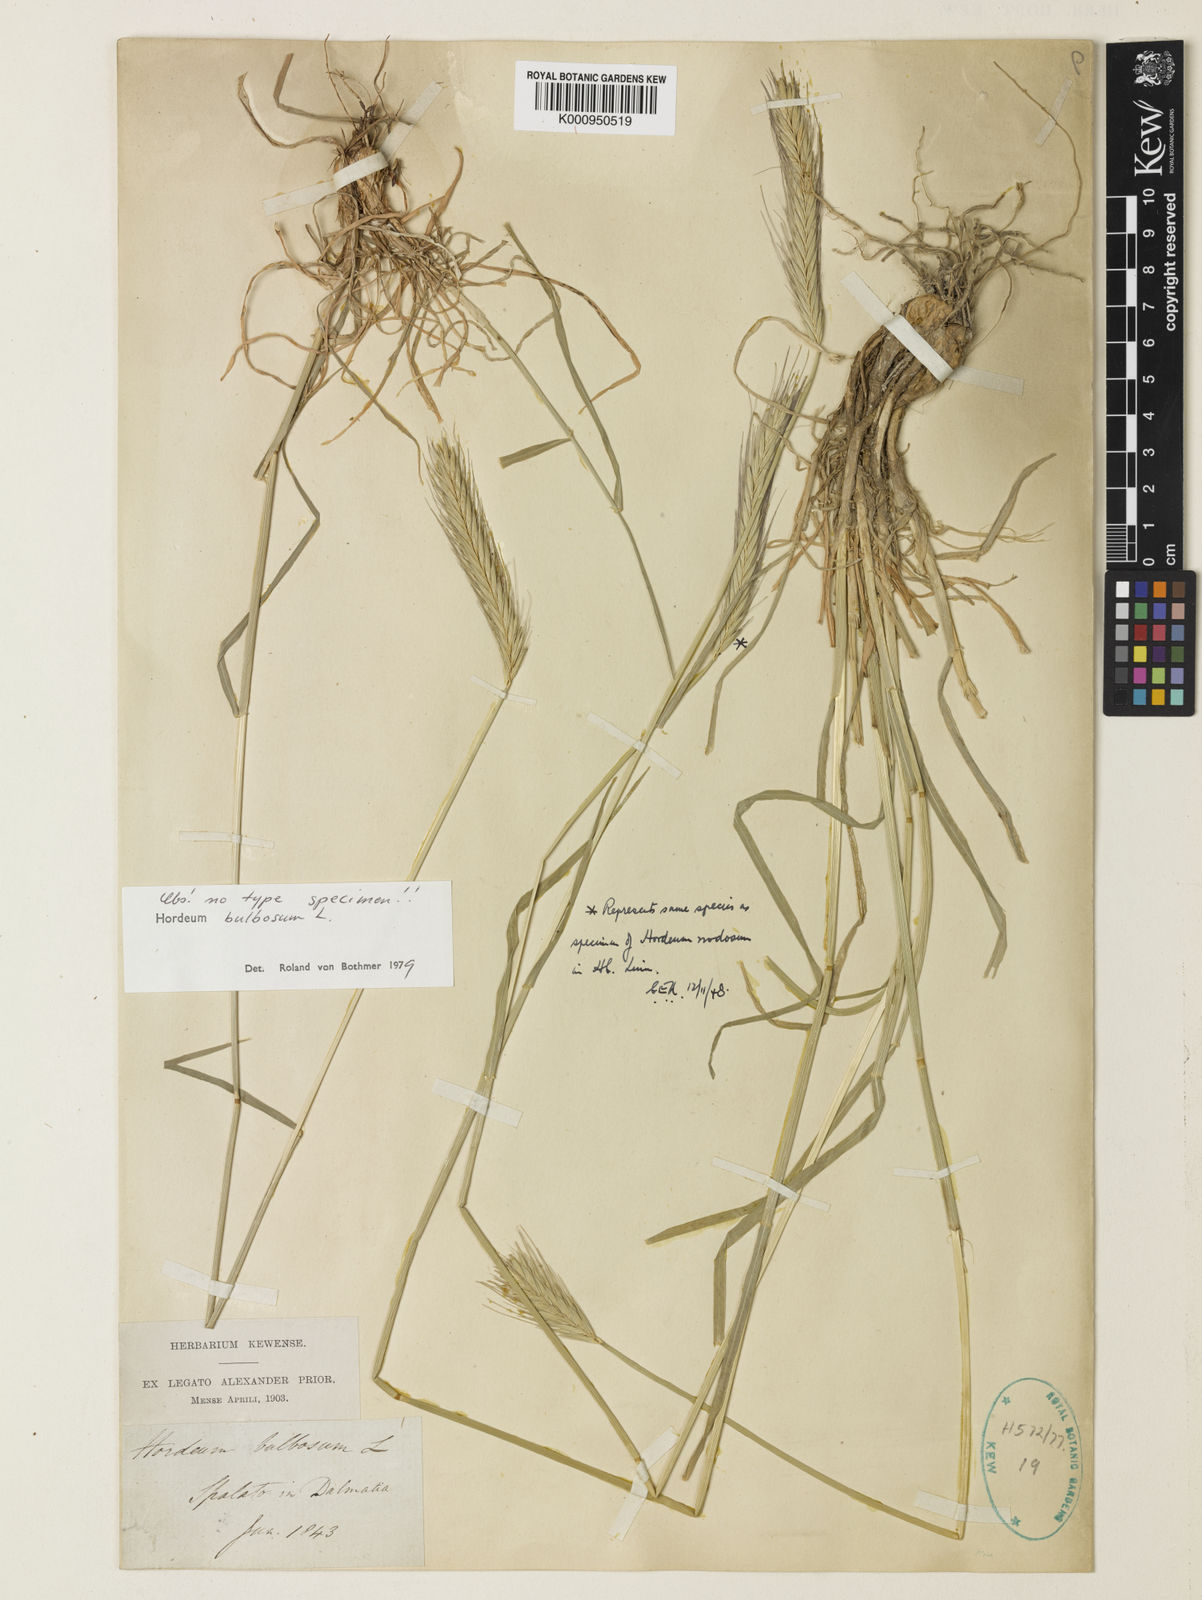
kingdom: Plantae
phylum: Tracheophyta
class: Liliopsida
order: Poales
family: Poaceae
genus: Hordeum
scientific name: Hordeum bulbosum
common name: Bulbous barley
